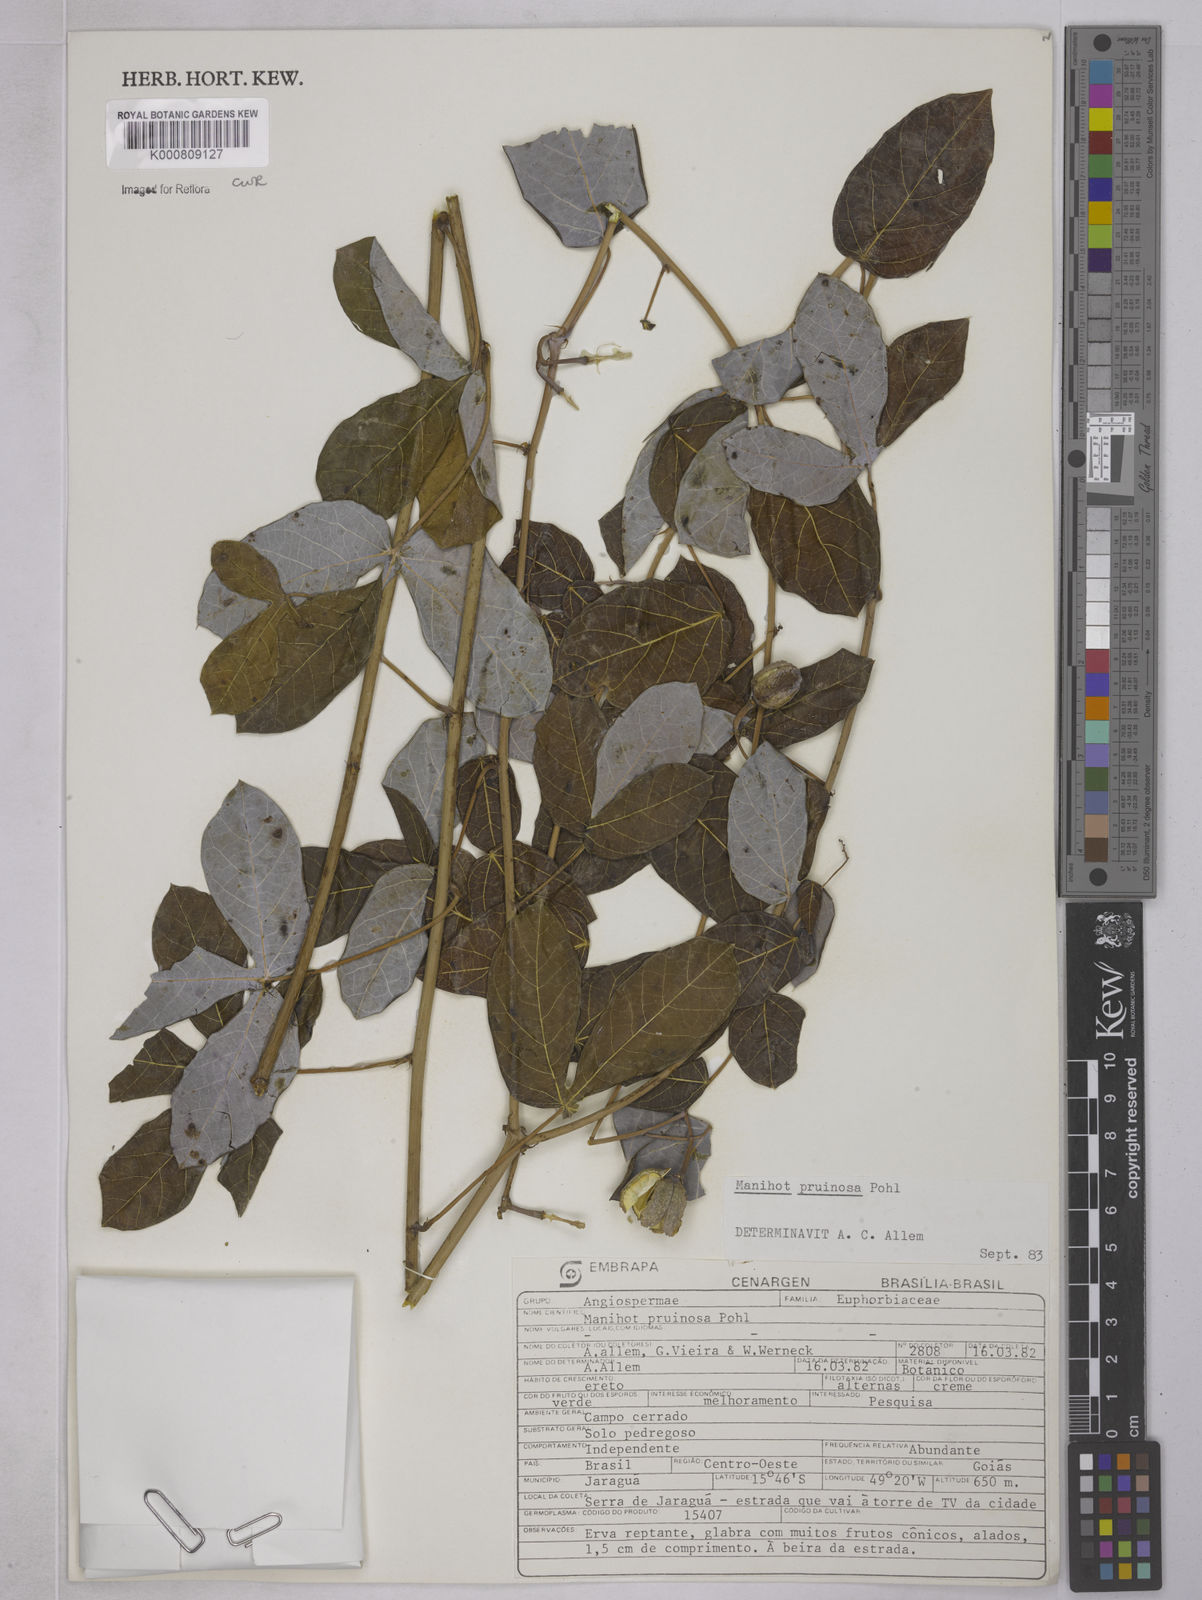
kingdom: Plantae
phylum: Tracheophyta
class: Magnoliopsida
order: Malpighiales
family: Euphorbiaceae
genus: Manihot
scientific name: Manihot pruinosa
